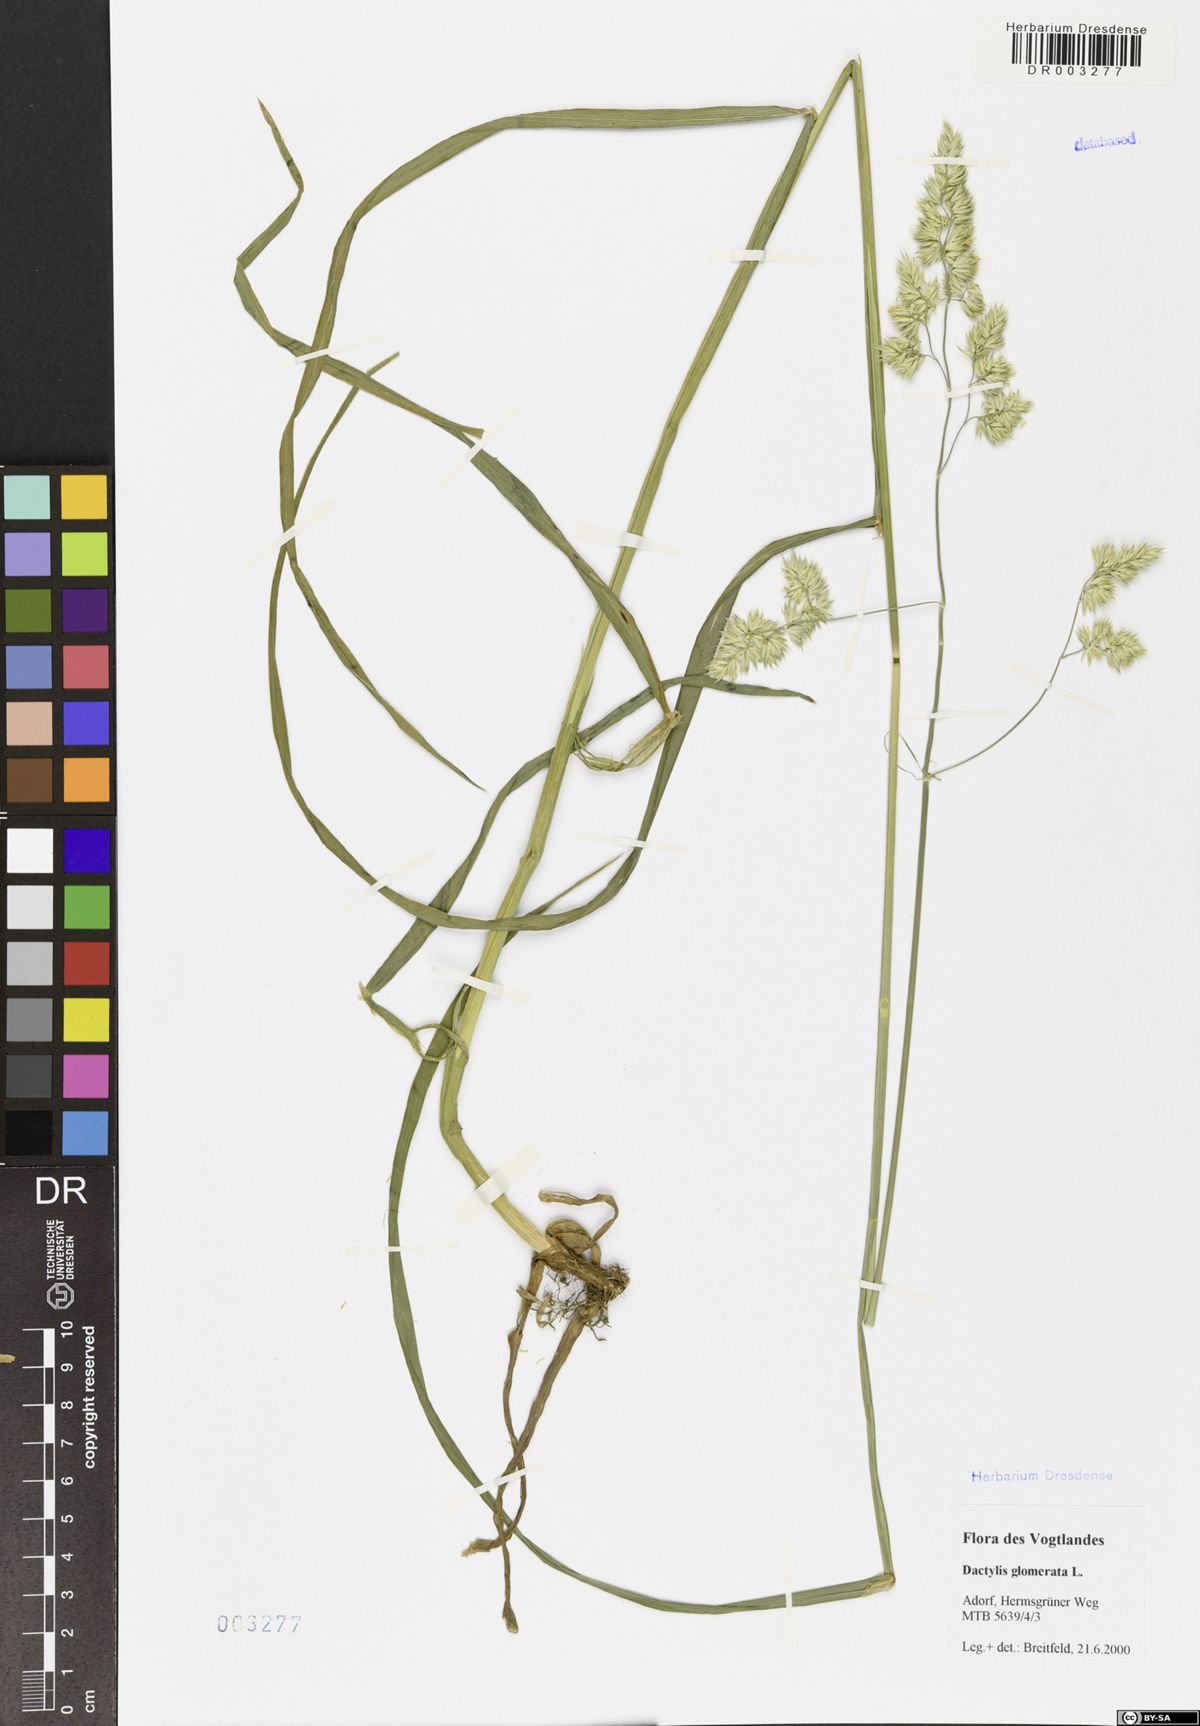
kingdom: Plantae
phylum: Tracheophyta
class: Liliopsida
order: Poales
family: Poaceae
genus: Dactylis
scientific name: Dactylis glomerata
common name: Orchardgrass
